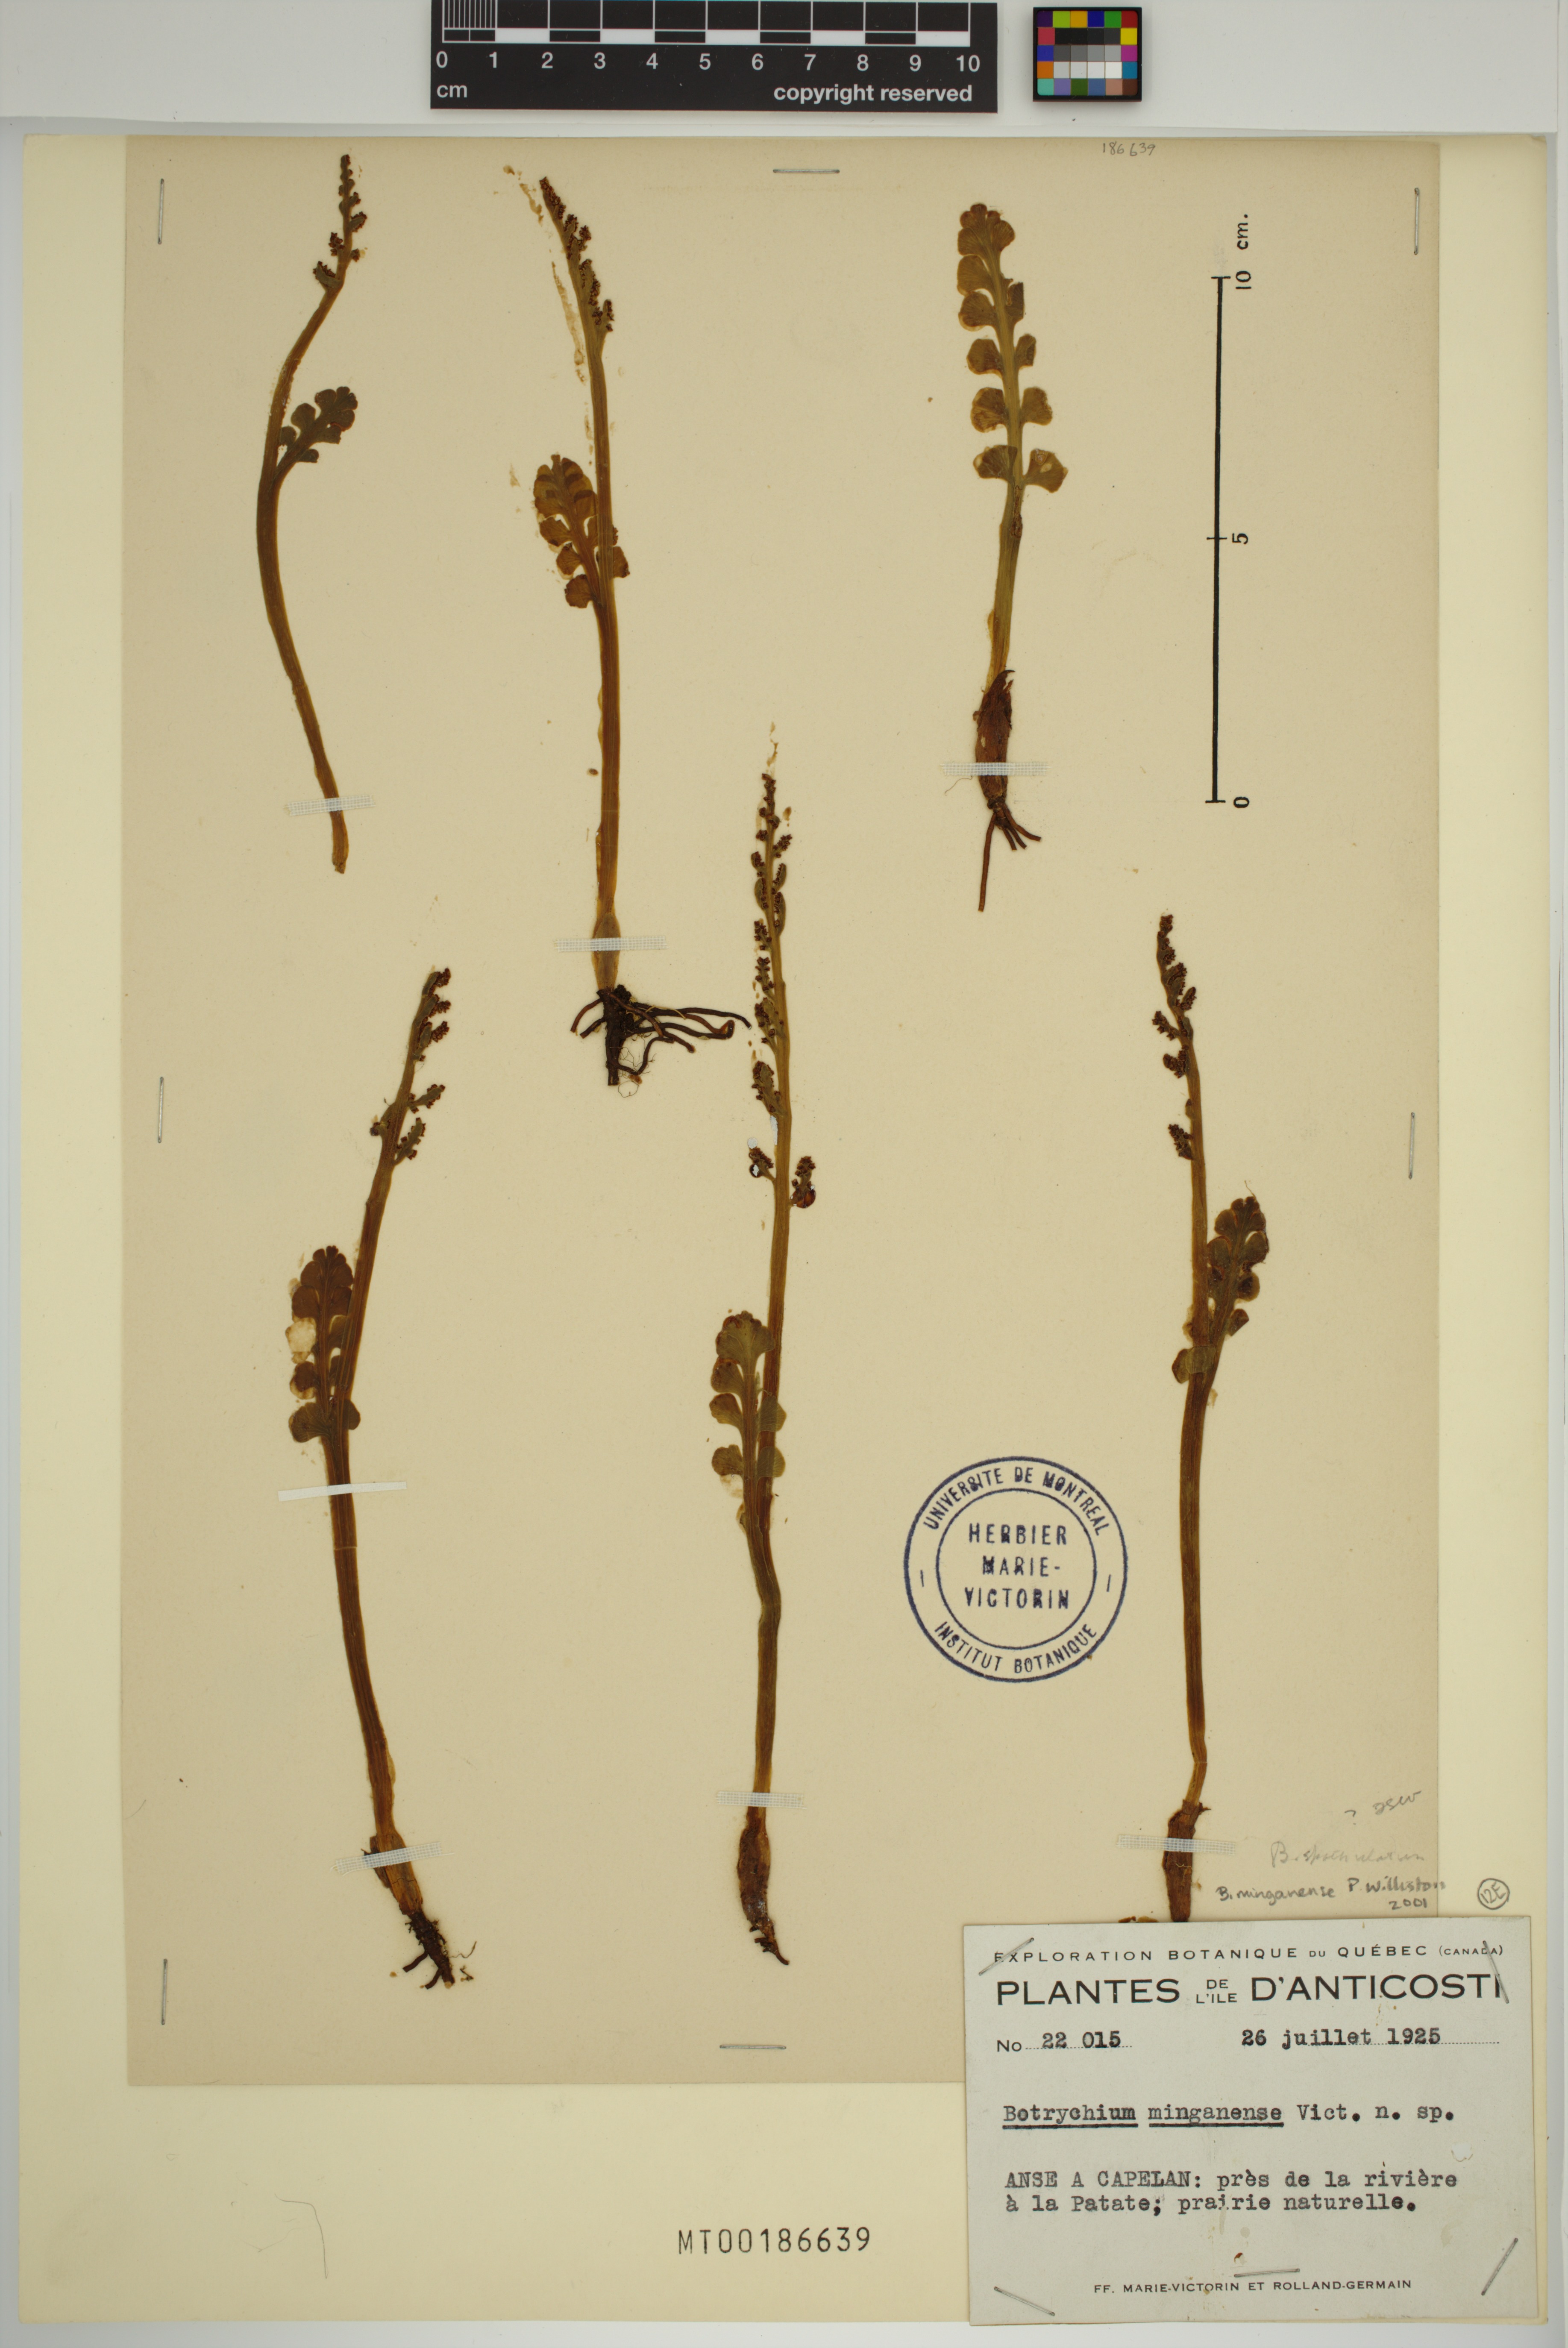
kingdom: Plantae
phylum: Tracheophyta
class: Polypodiopsida
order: Ophioglossales
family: Ophioglossaceae
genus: Botrychium
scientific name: Botrychium minganense
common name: Mingan grapefern
